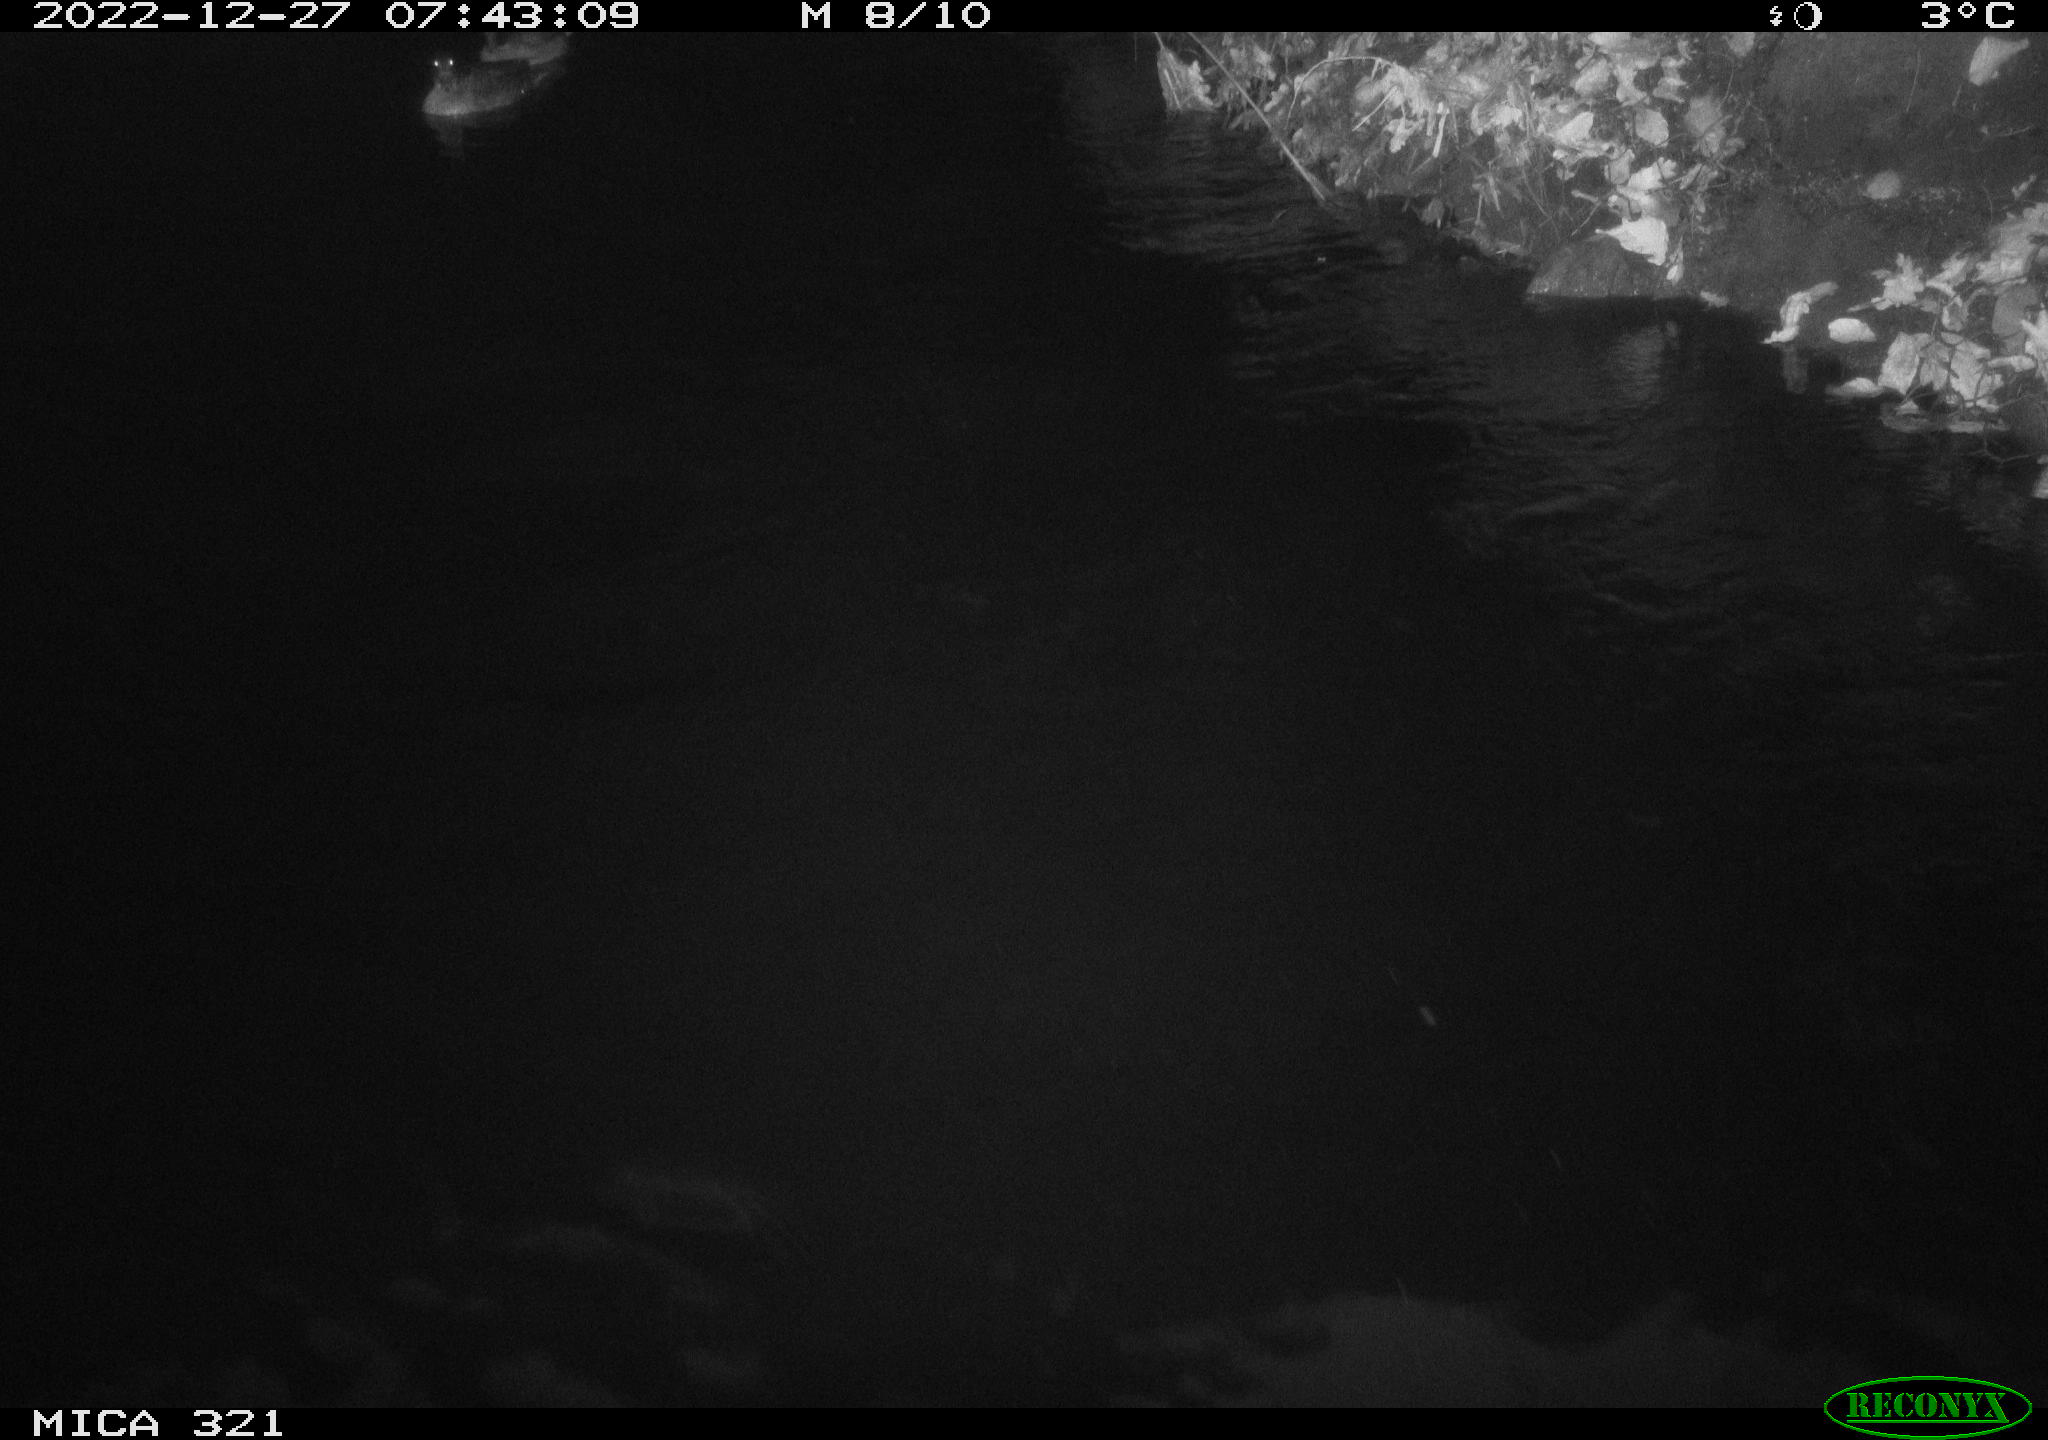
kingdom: Animalia
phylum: Chordata
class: Mammalia
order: Rodentia
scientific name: Rodentia
